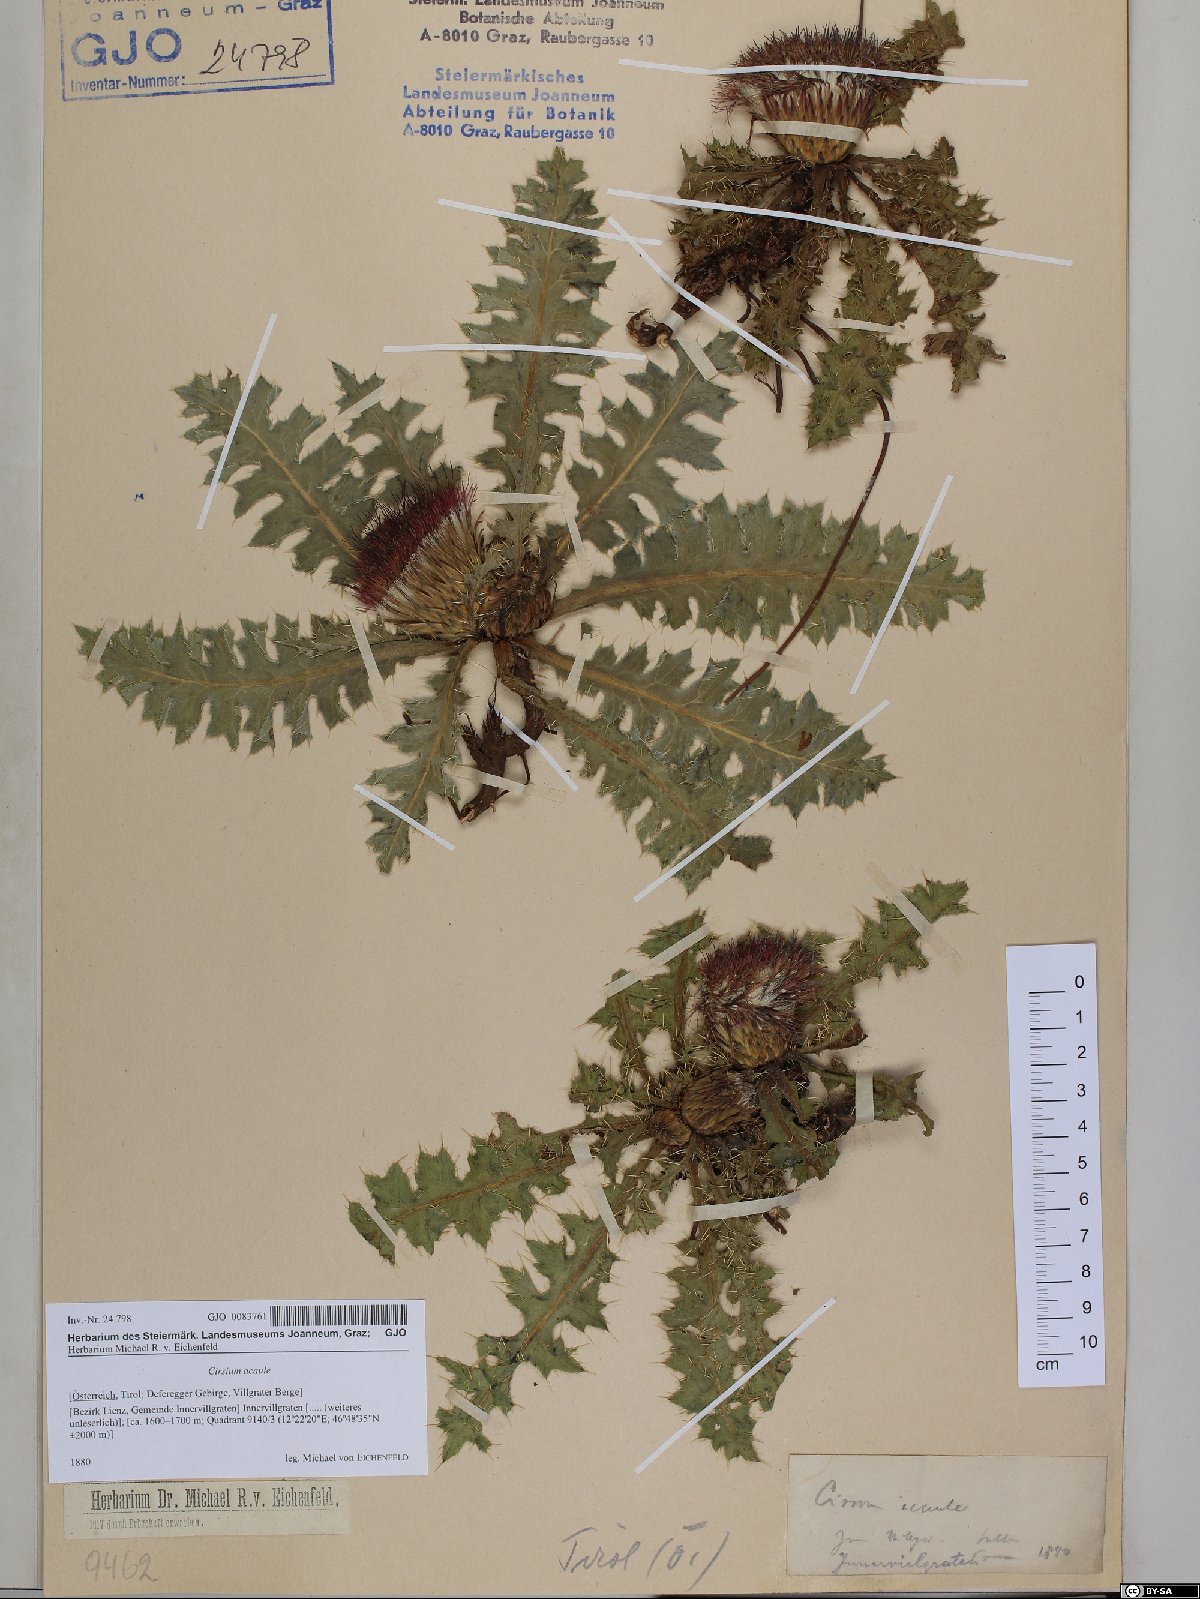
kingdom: Plantae
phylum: Tracheophyta
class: Magnoliopsida
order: Asterales
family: Asteraceae
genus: Cirsium
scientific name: Cirsium acaulon
